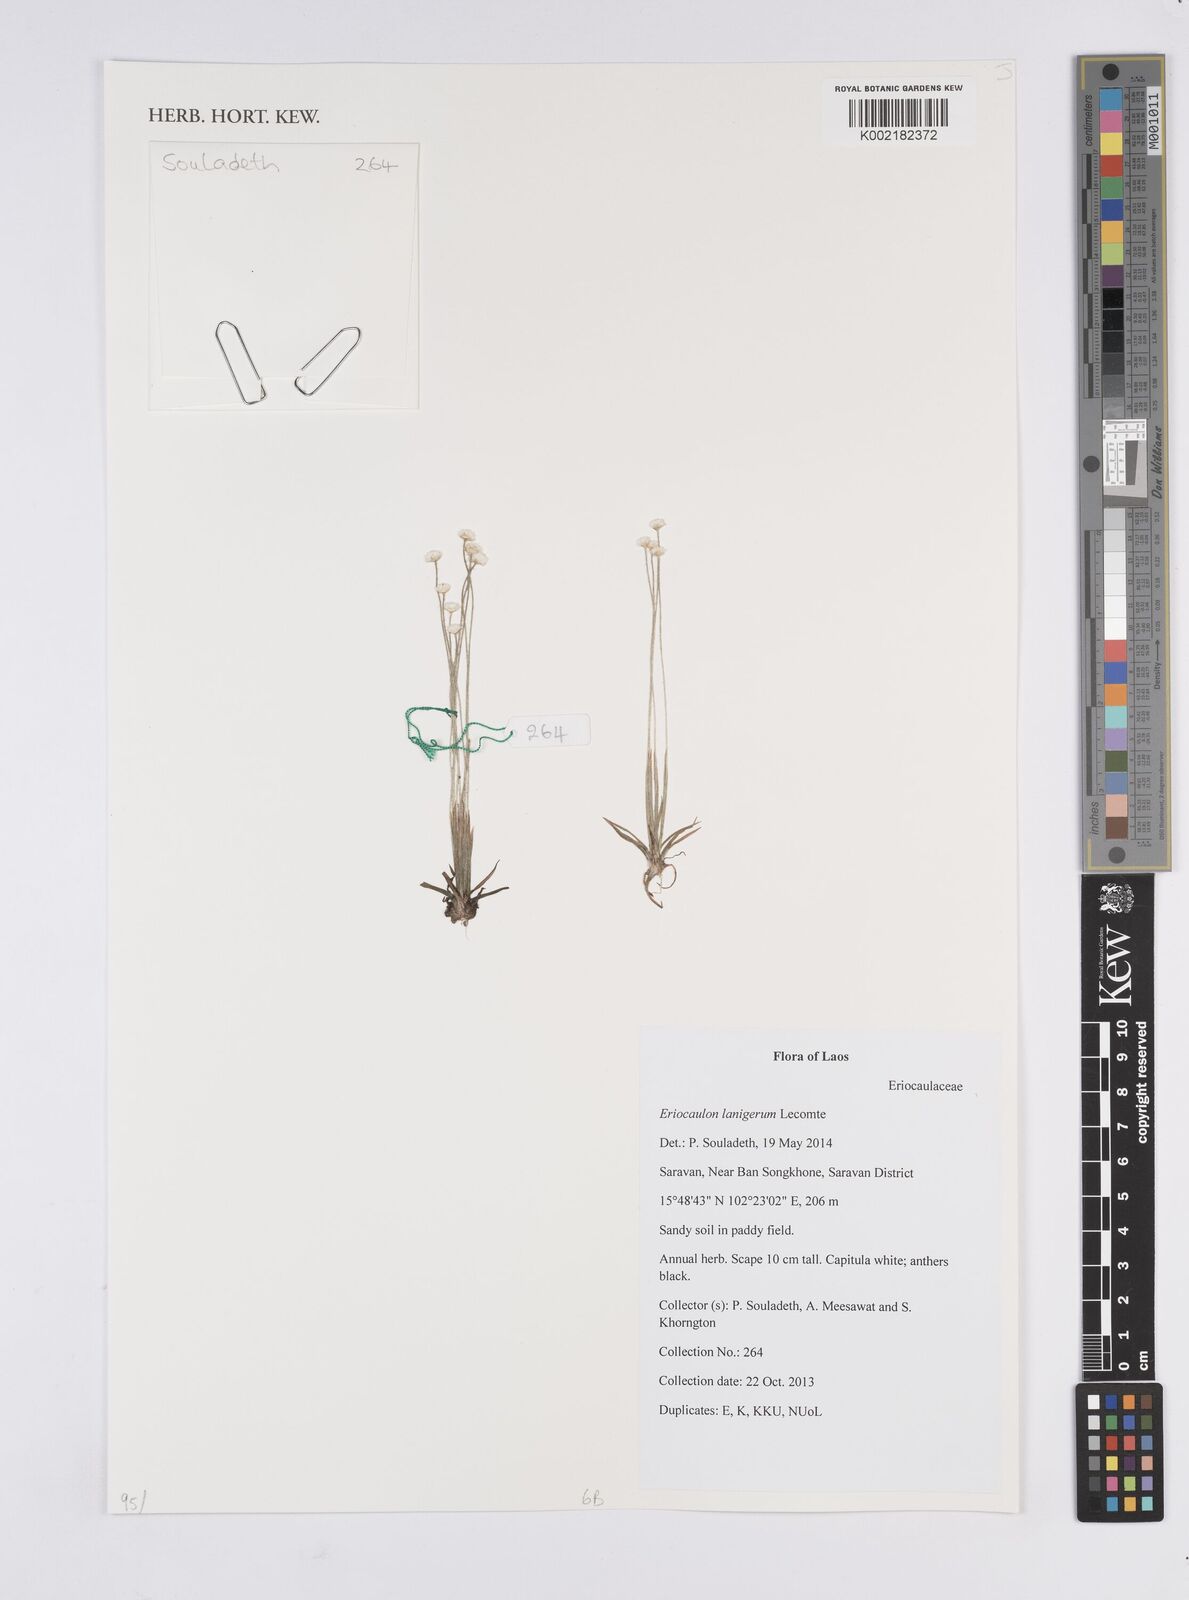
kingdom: Plantae
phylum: Tracheophyta
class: Liliopsida
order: Poales
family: Eriocaulaceae
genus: Eriocaulon
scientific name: Eriocaulon lanigerum
